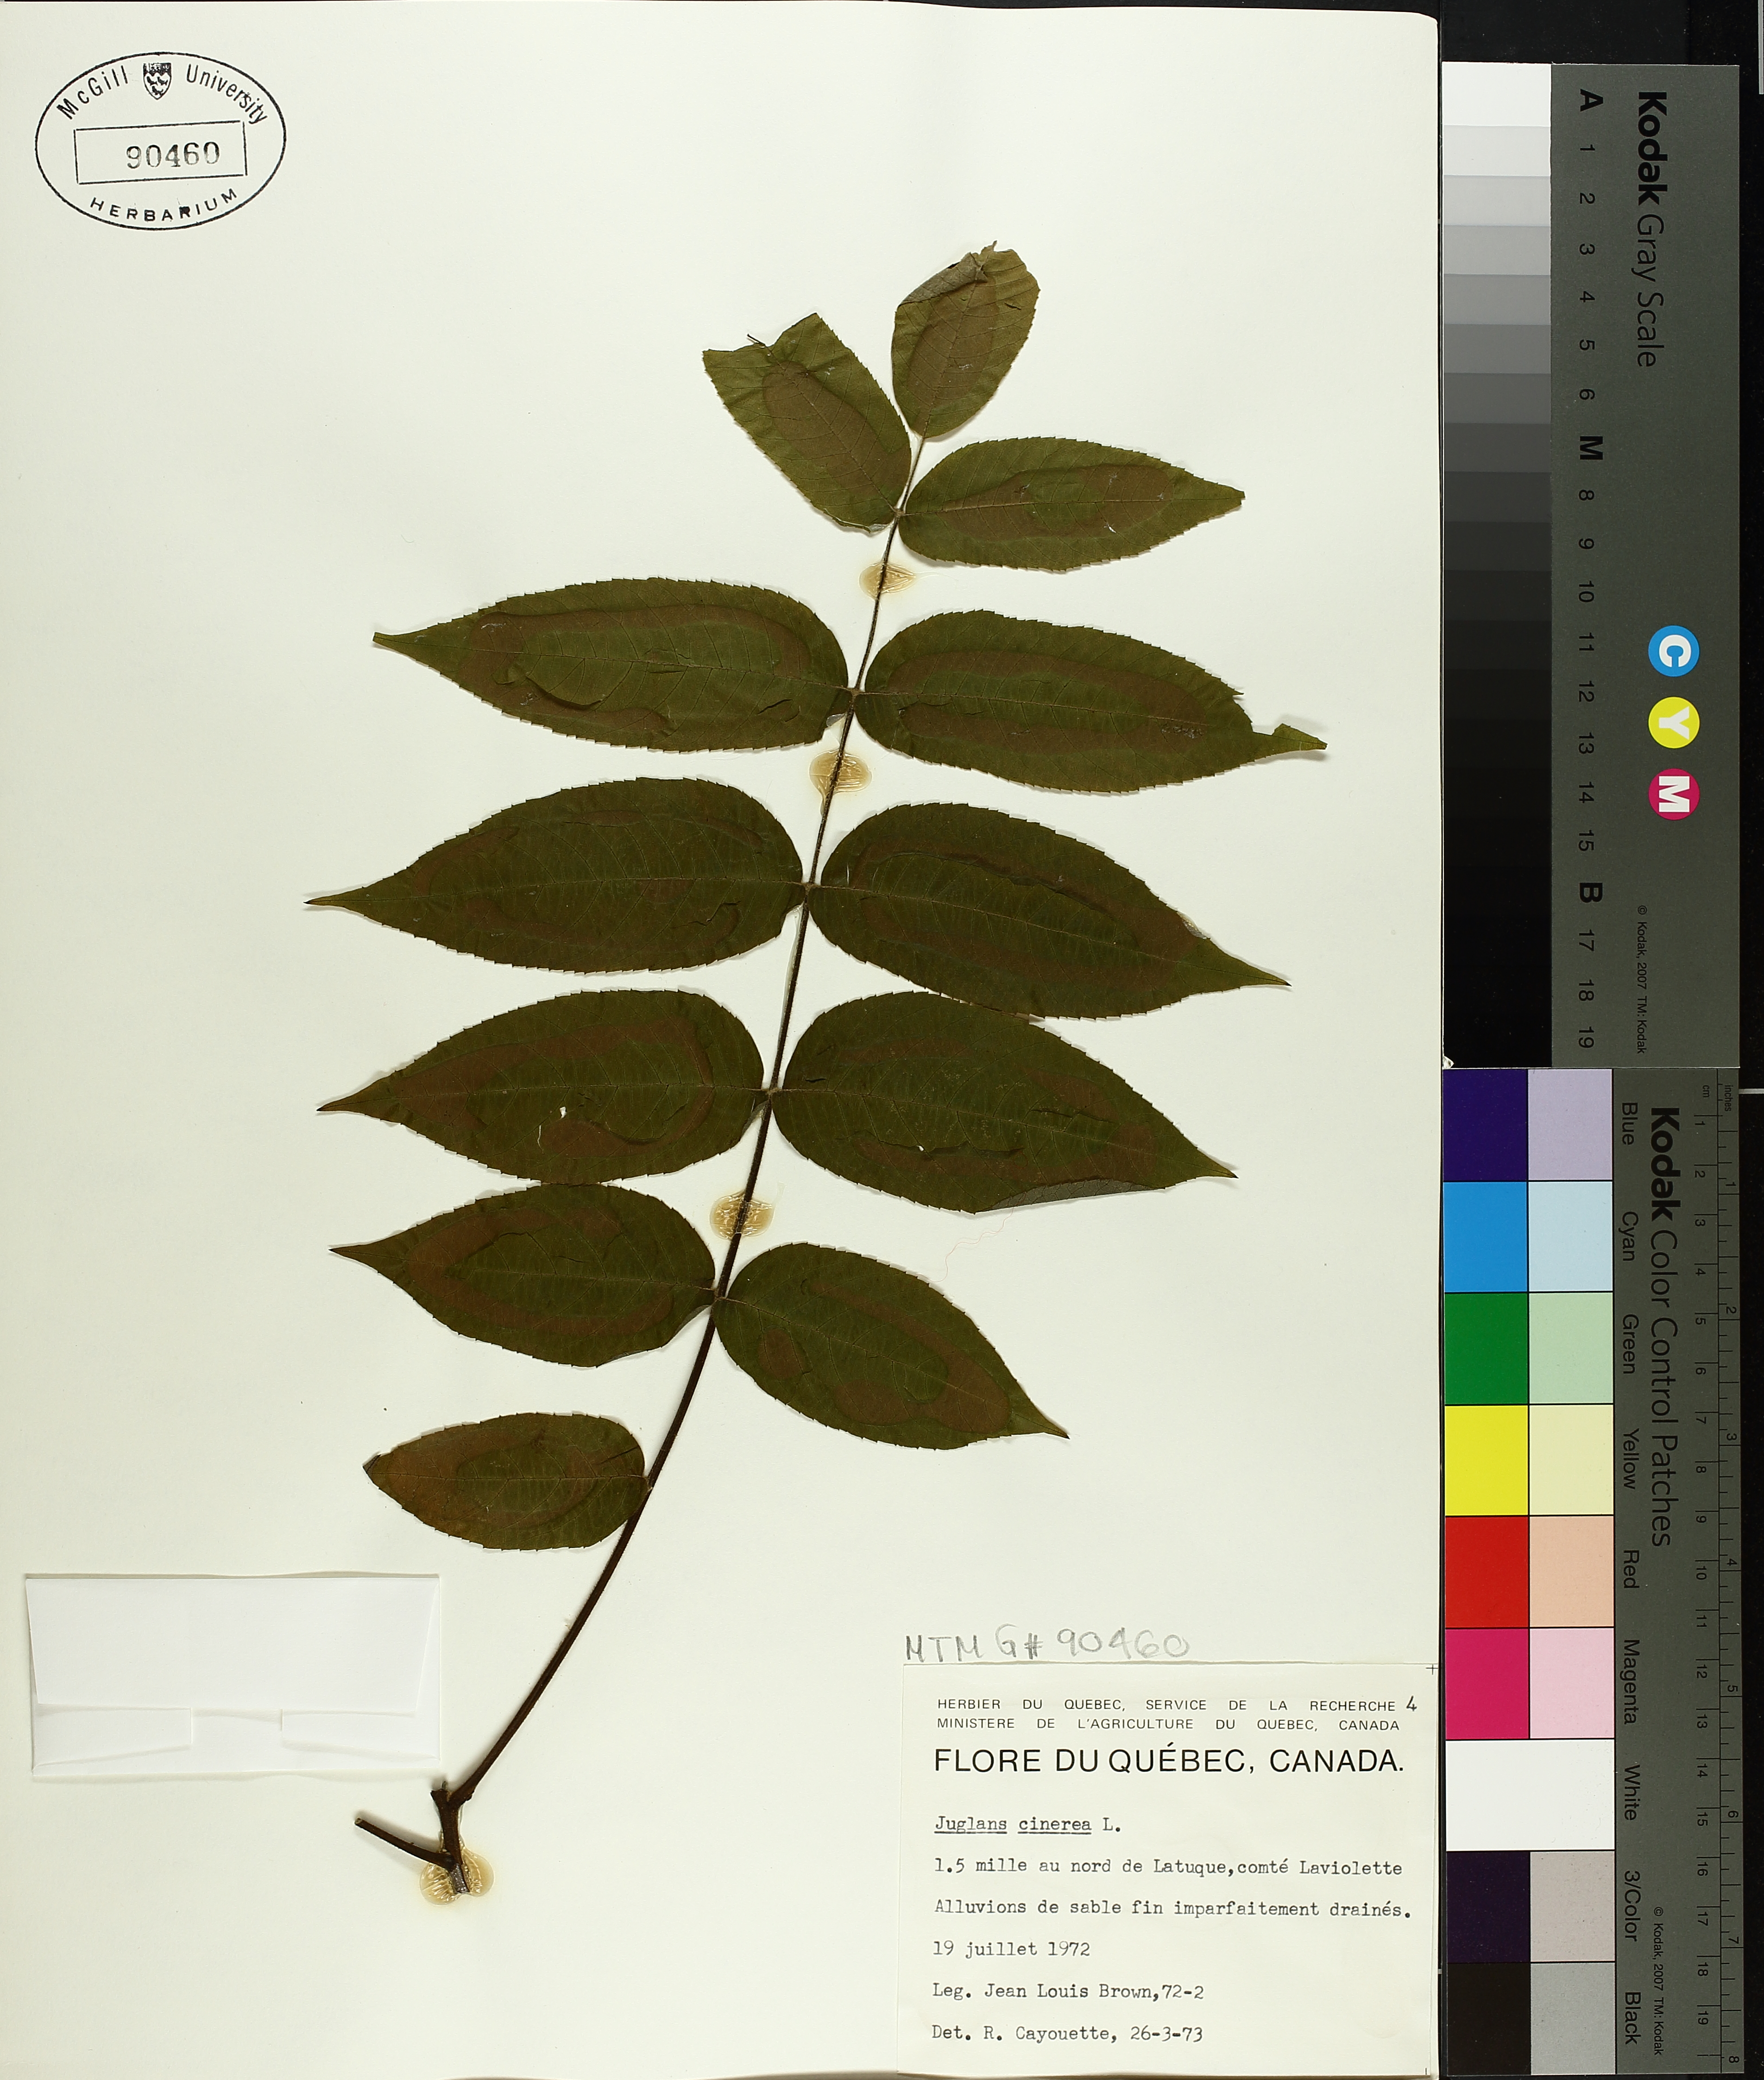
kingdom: Plantae
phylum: Tracheophyta
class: Magnoliopsida
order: Fagales
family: Juglandaceae
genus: Juglans
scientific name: Juglans cinerea
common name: Butternut
